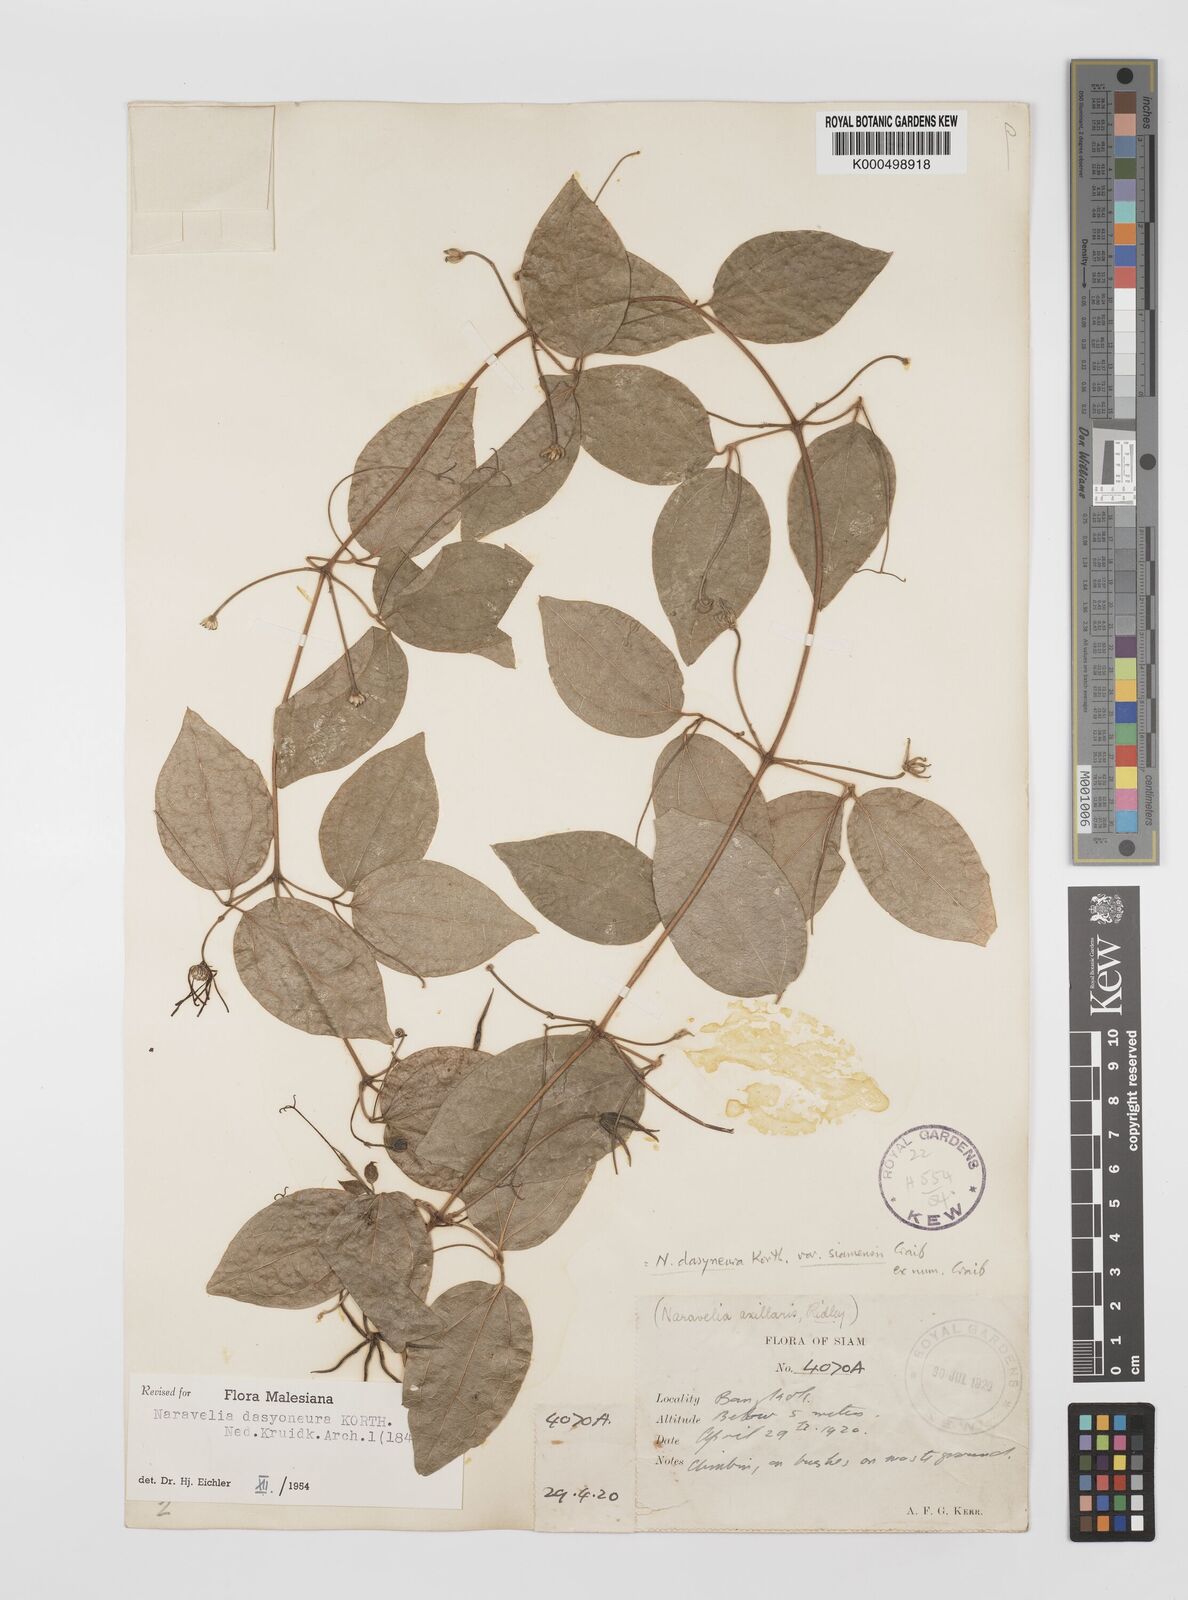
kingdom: Plantae
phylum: Tracheophyta
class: Magnoliopsida
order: Ranunculales
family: Ranunculaceae
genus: Clematis
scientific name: Clematis dasyoneura
